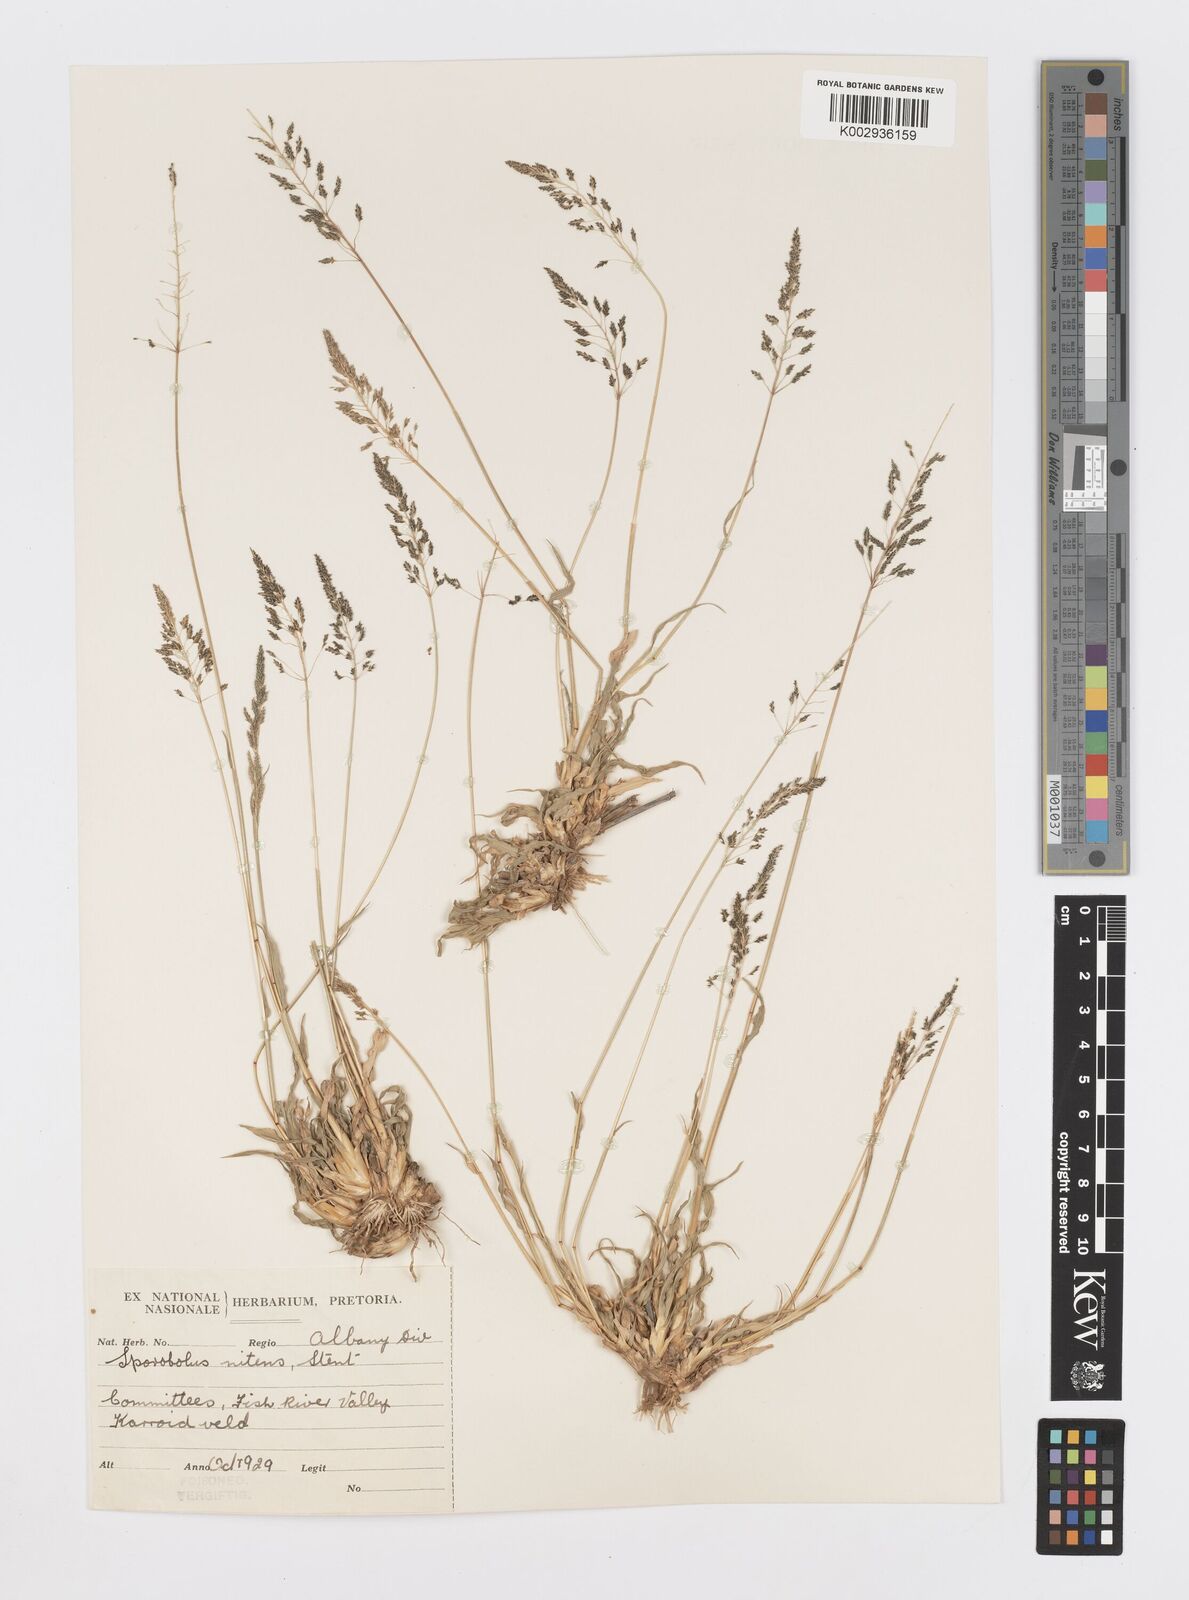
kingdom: Plantae
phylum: Tracheophyta
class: Liliopsida
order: Poales
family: Poaceae
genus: Sporobolus
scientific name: Sporobolus nitens
